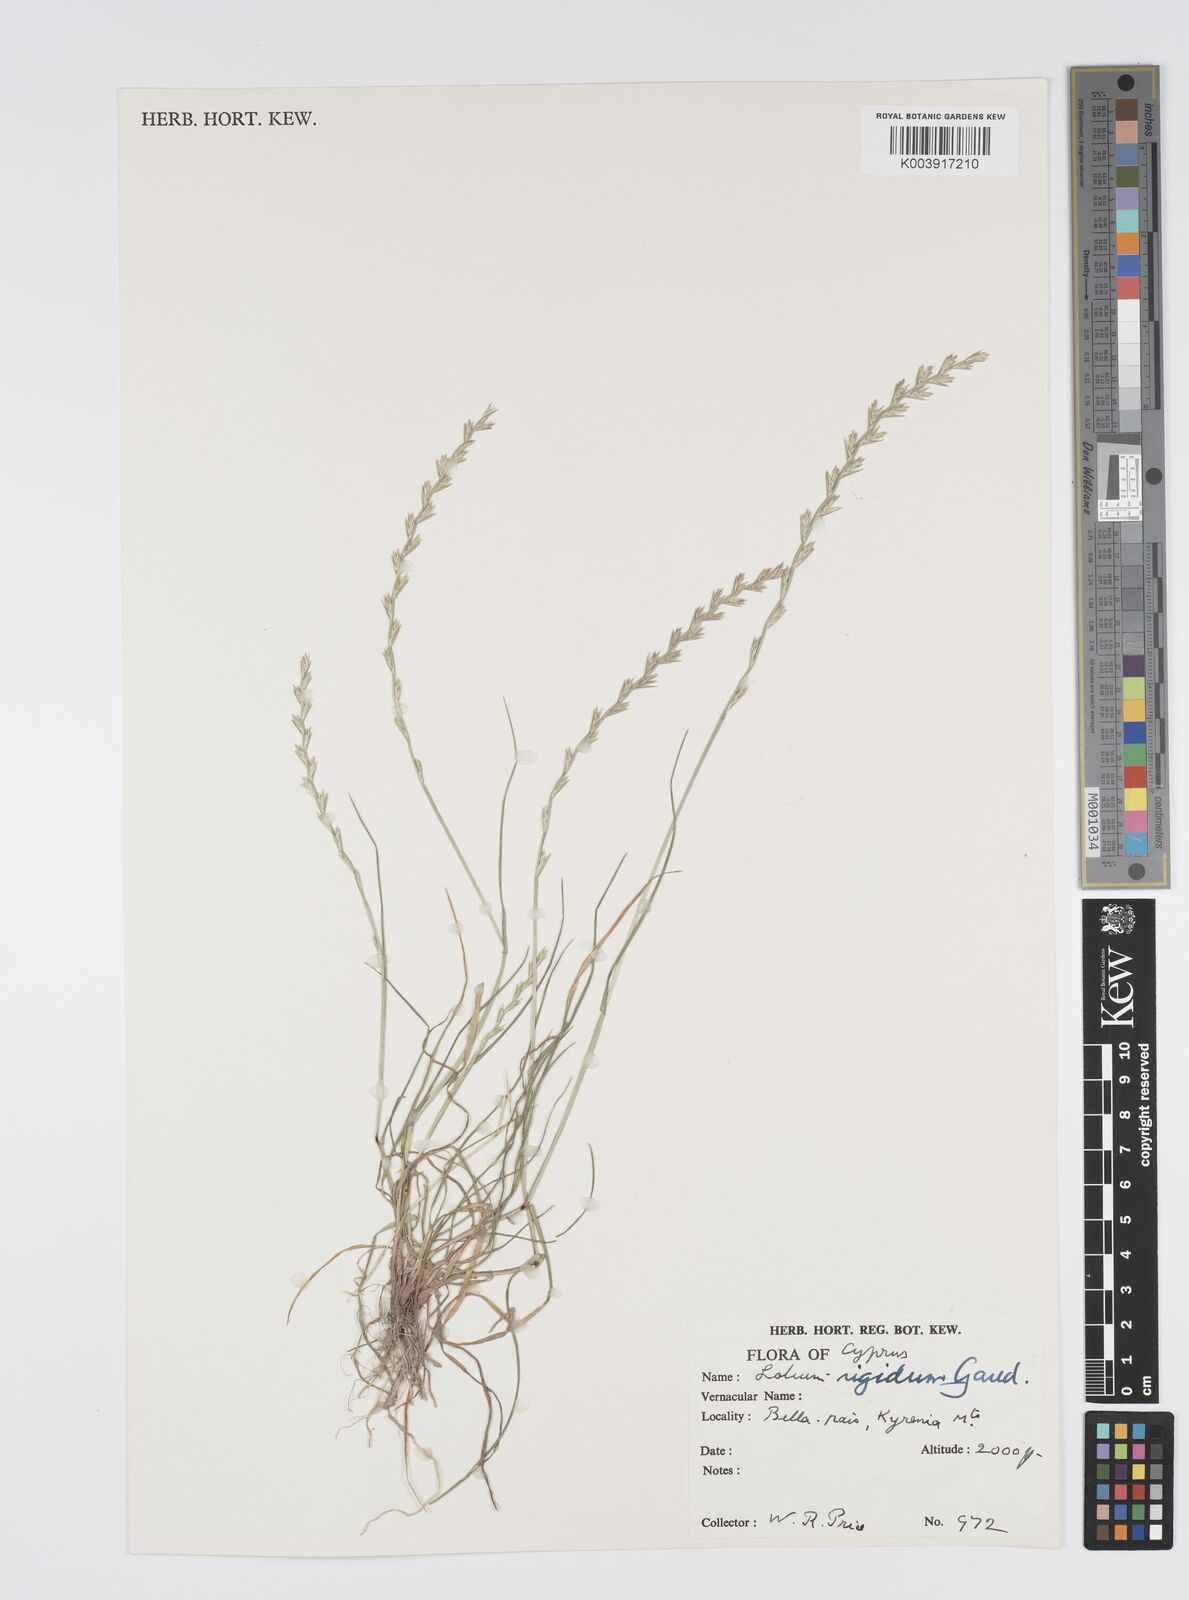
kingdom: Plantae
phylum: Tracheophyta
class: Liliopsida
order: Poales
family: Poaceae
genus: Lolium
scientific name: Lolium rigidum
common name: Wimmera ryegrass
